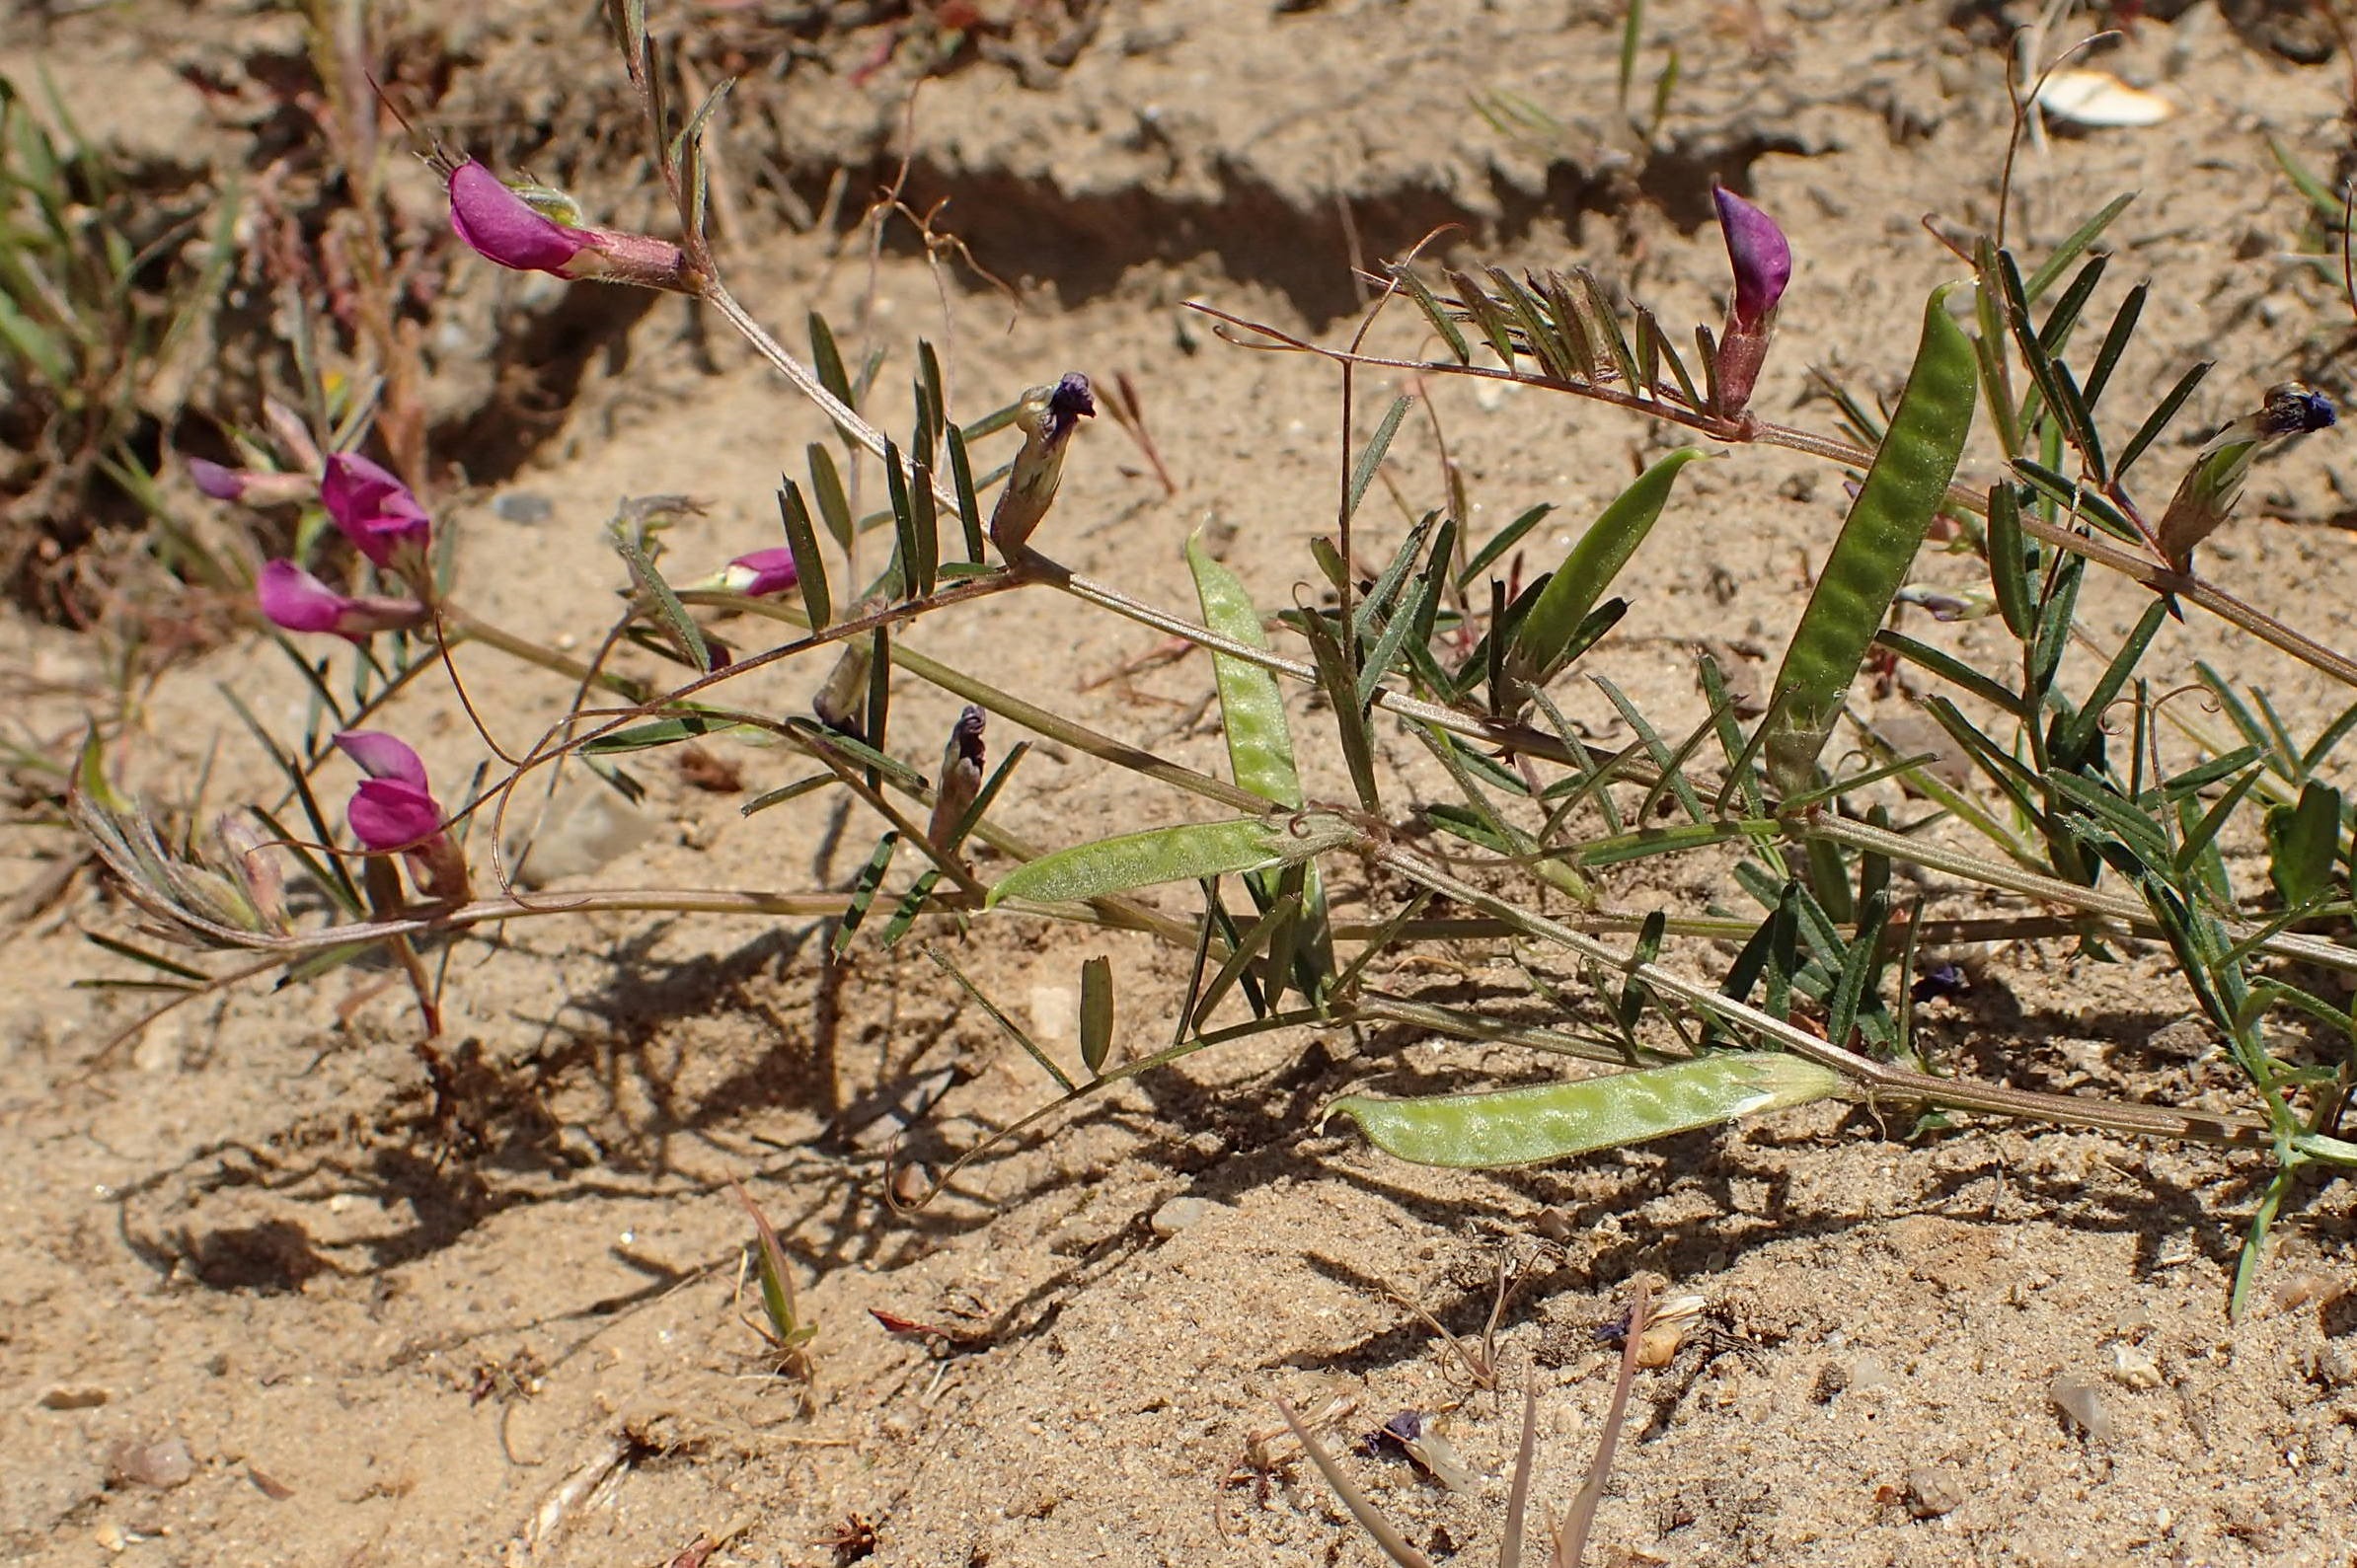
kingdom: Plantae
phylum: Tracheophyta
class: Magnoliopsida
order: Fabales
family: Fabaceae
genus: Vicia
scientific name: Vicia sativa
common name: Smalbladet vikke
